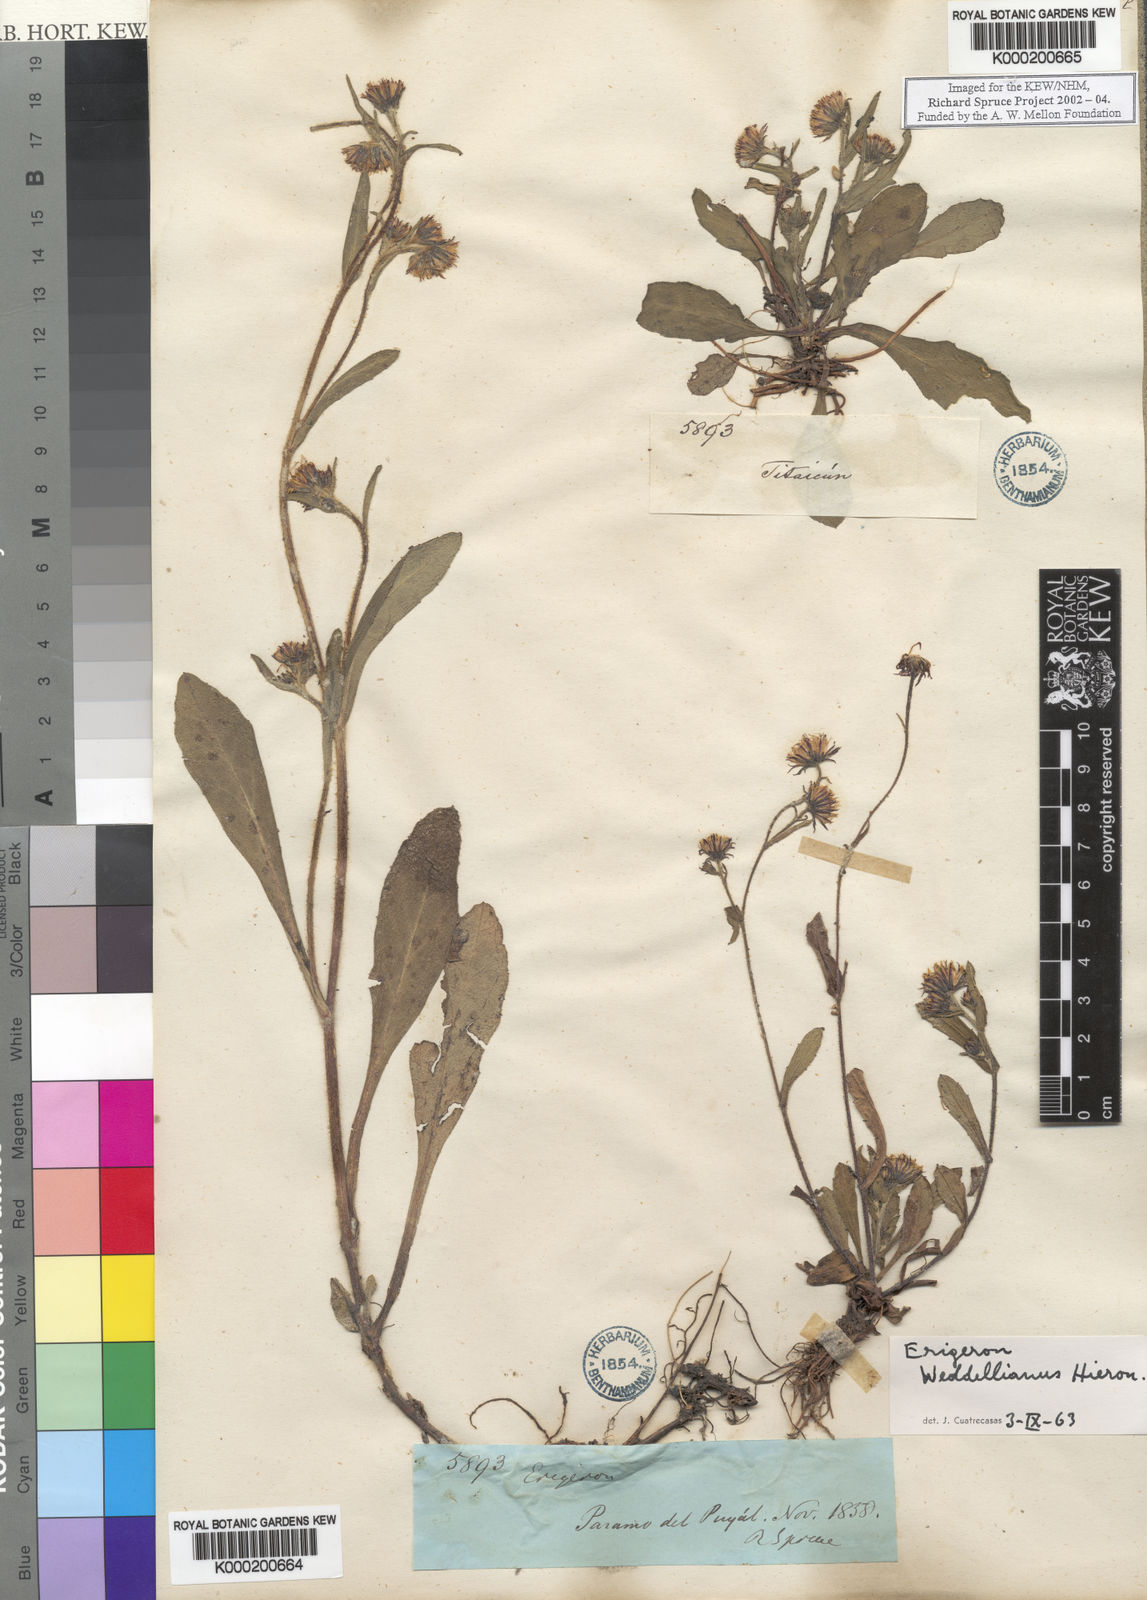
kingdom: Plantae
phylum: Tracheophyta
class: Magnoliopsida
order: Asterales
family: Asteraceae
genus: Erigeron
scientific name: Erigeron ecuadoriensis
